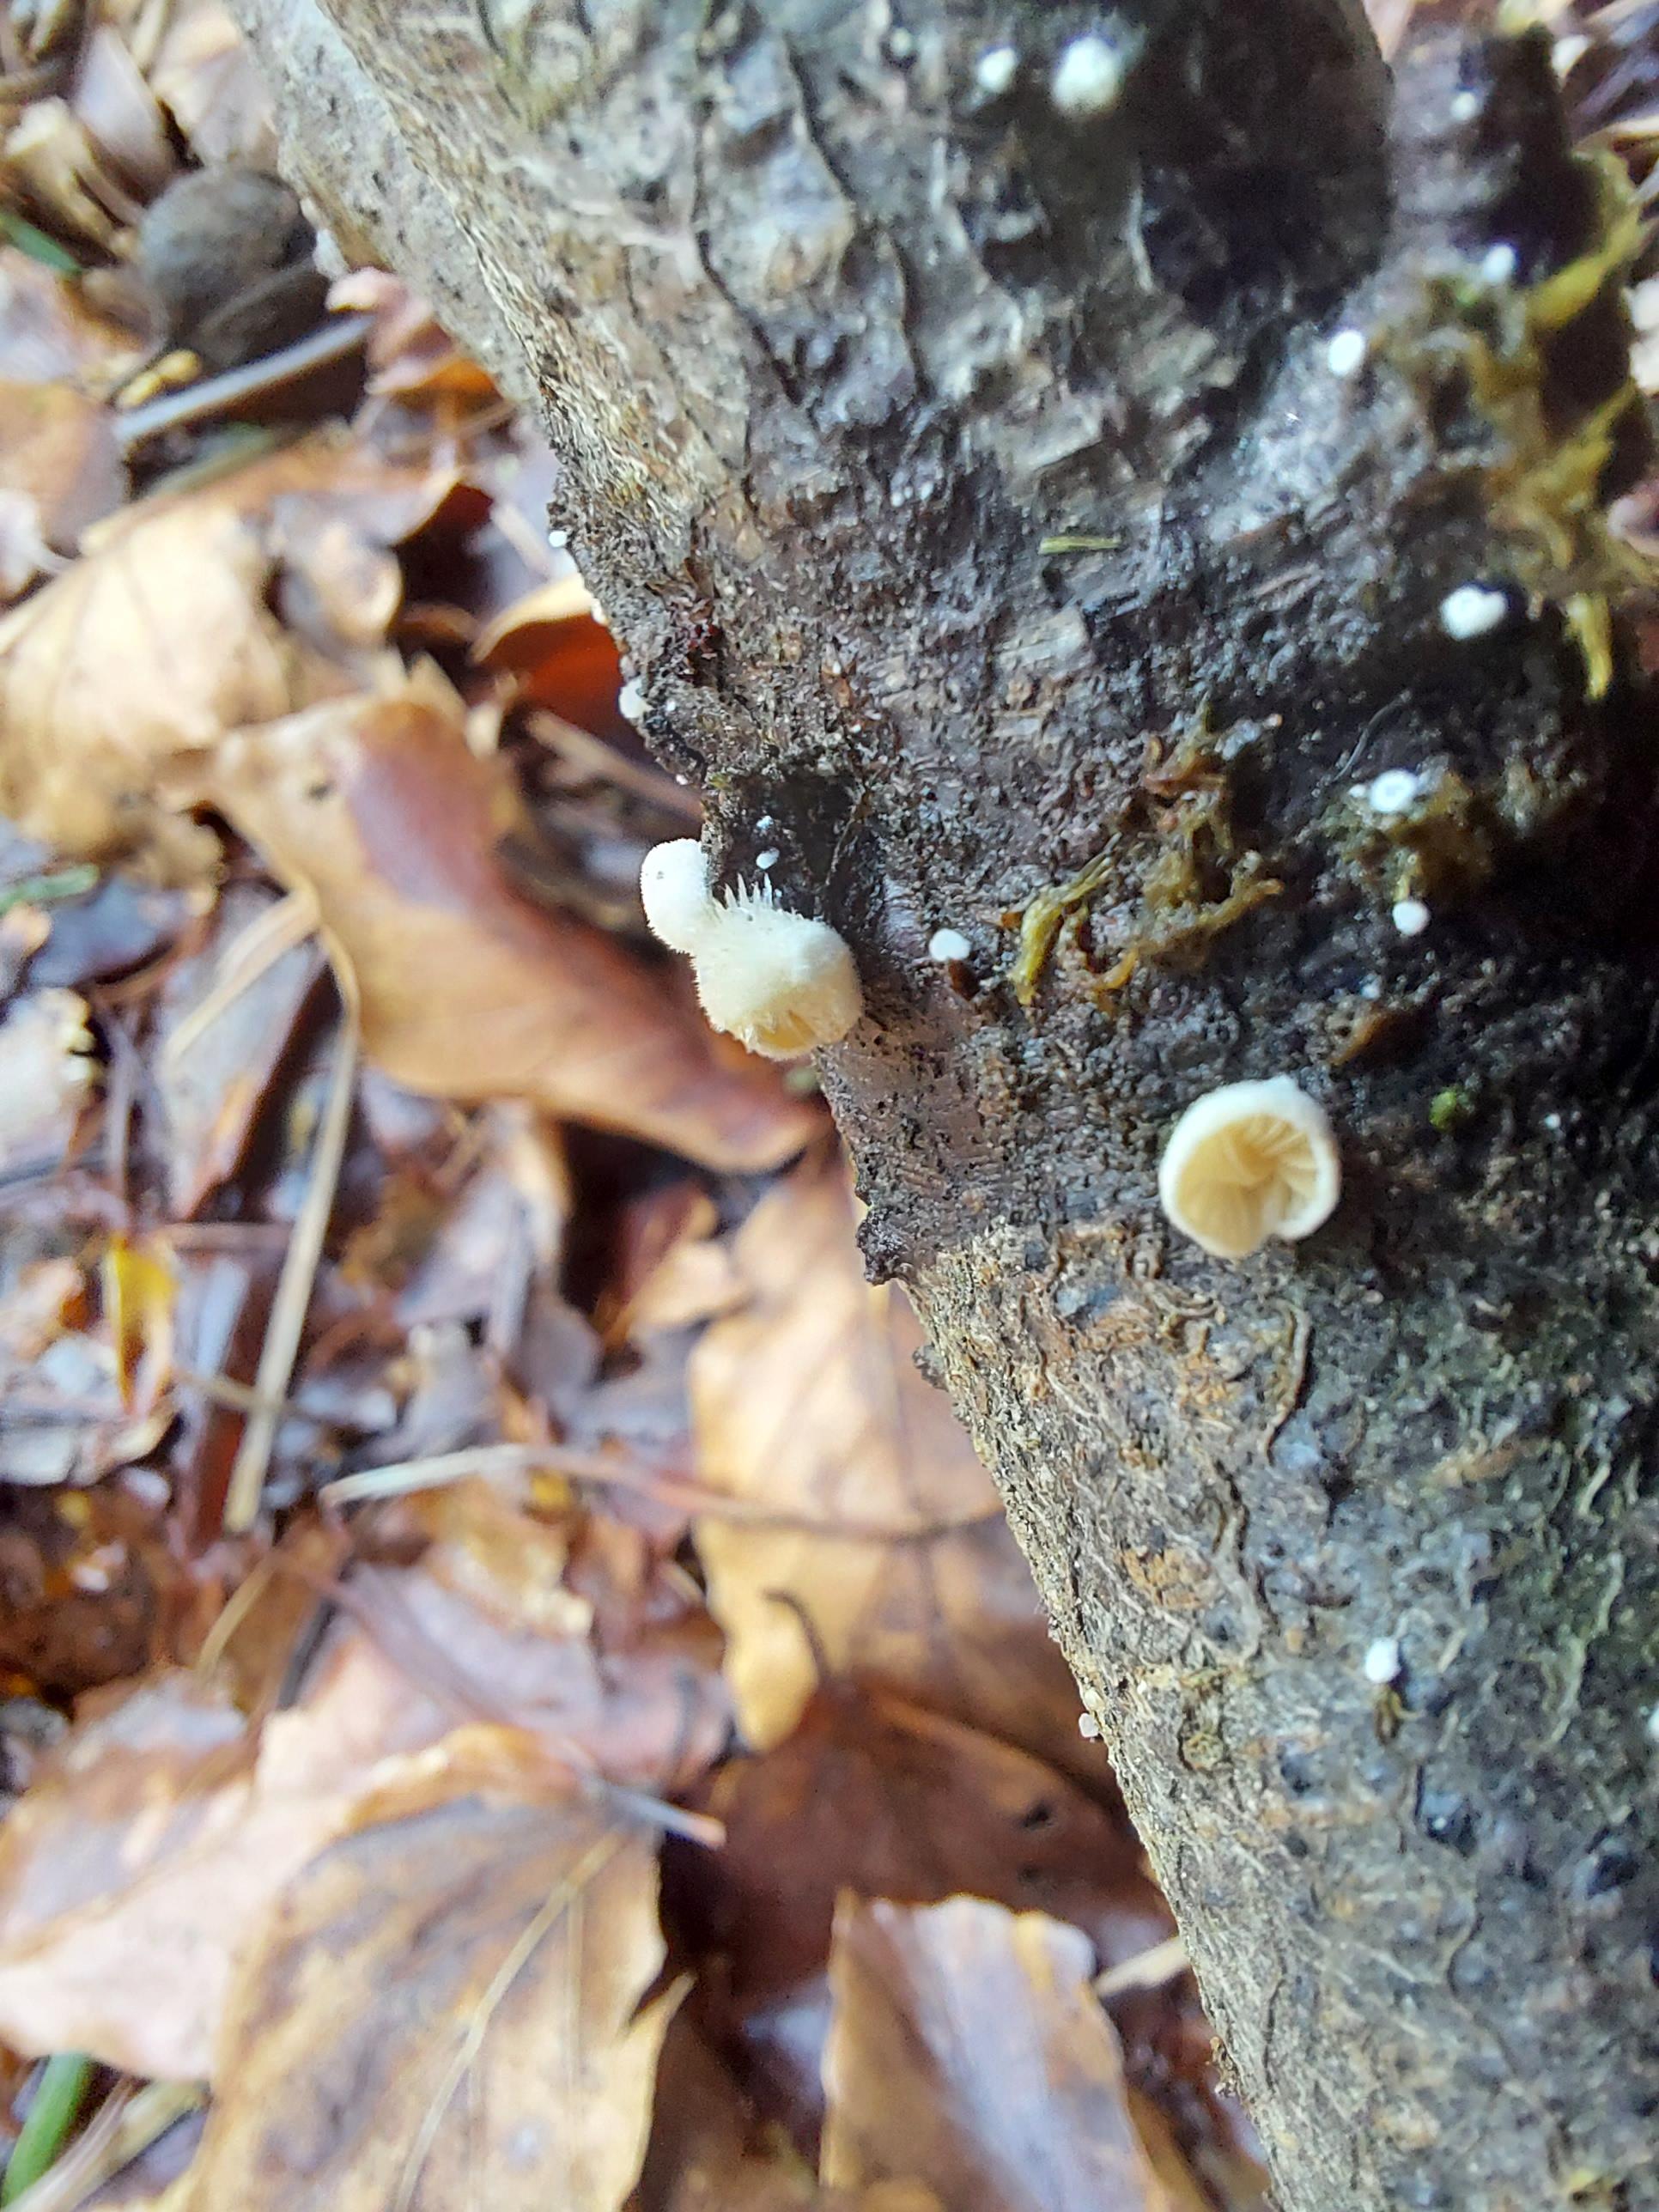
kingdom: Fungi
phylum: Basidiomycota
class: Agaricomycetes
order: Agaricales
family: Crepidotaceae
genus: Crepidotus
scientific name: Crepidotus
